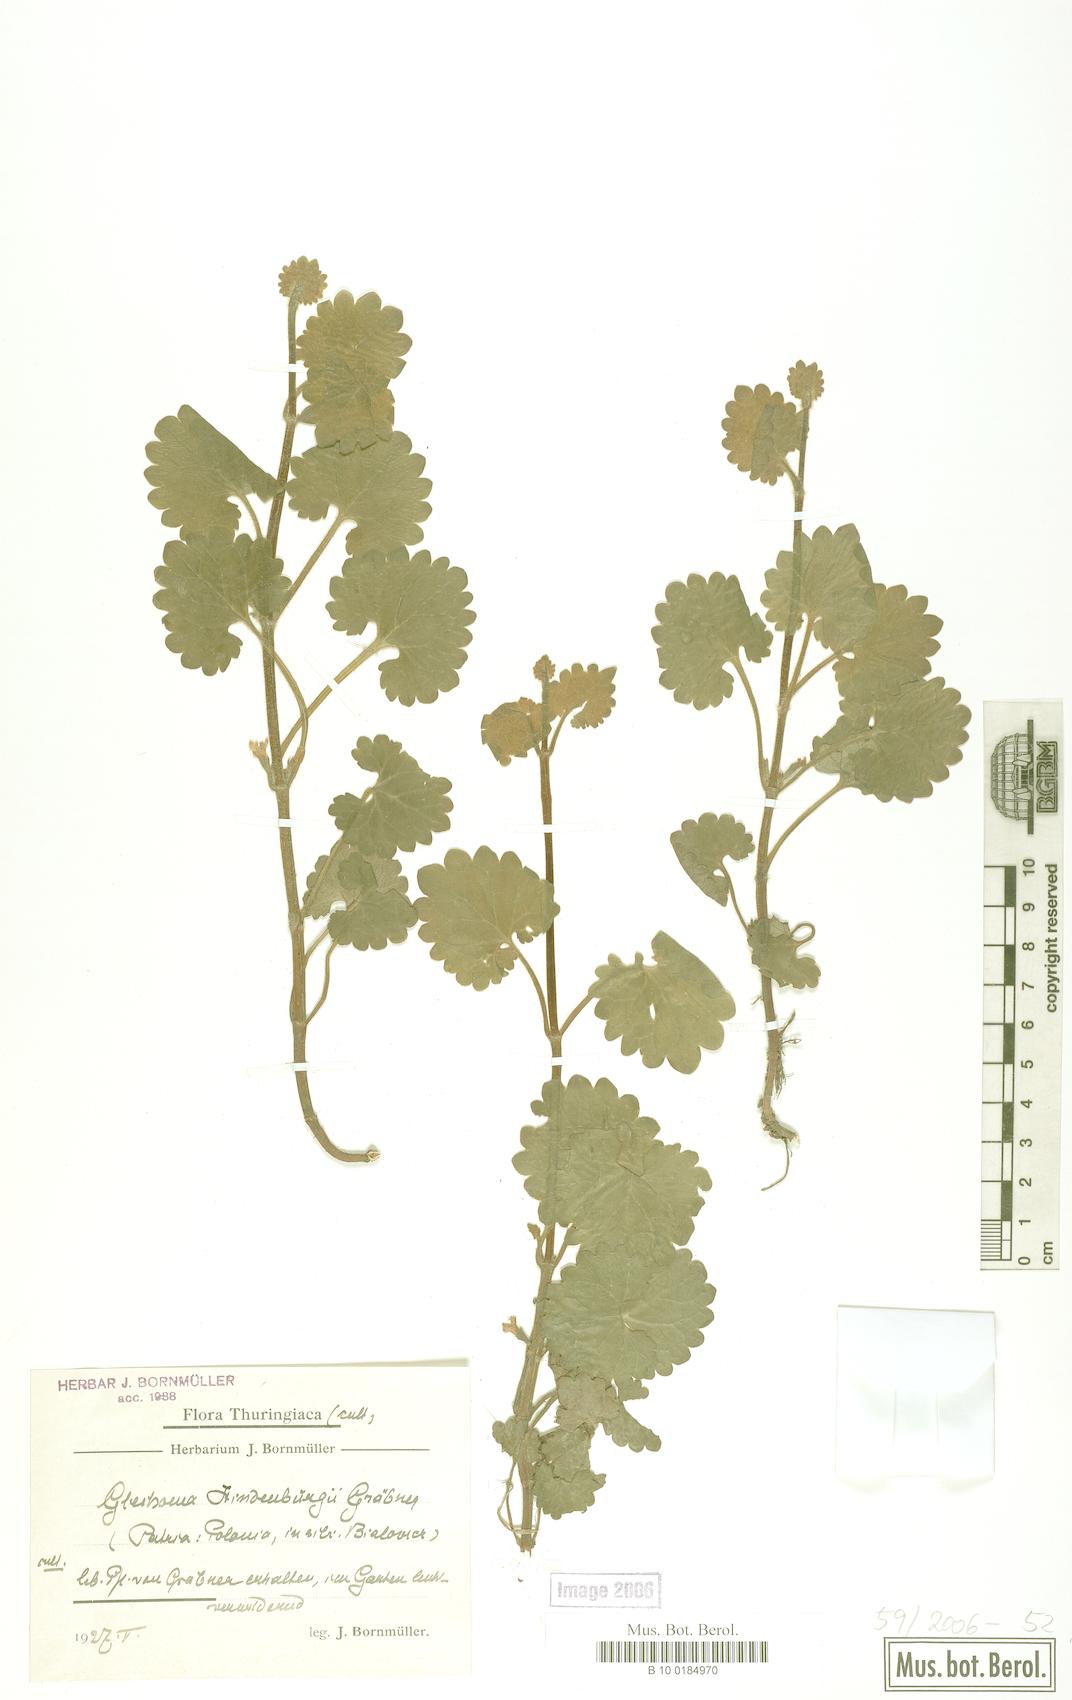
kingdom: Plantae
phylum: Tracheophyta
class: Magnoliopsida
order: Lamiales
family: Lamiaceae
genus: Glechoma
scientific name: Glechoma pannonica
